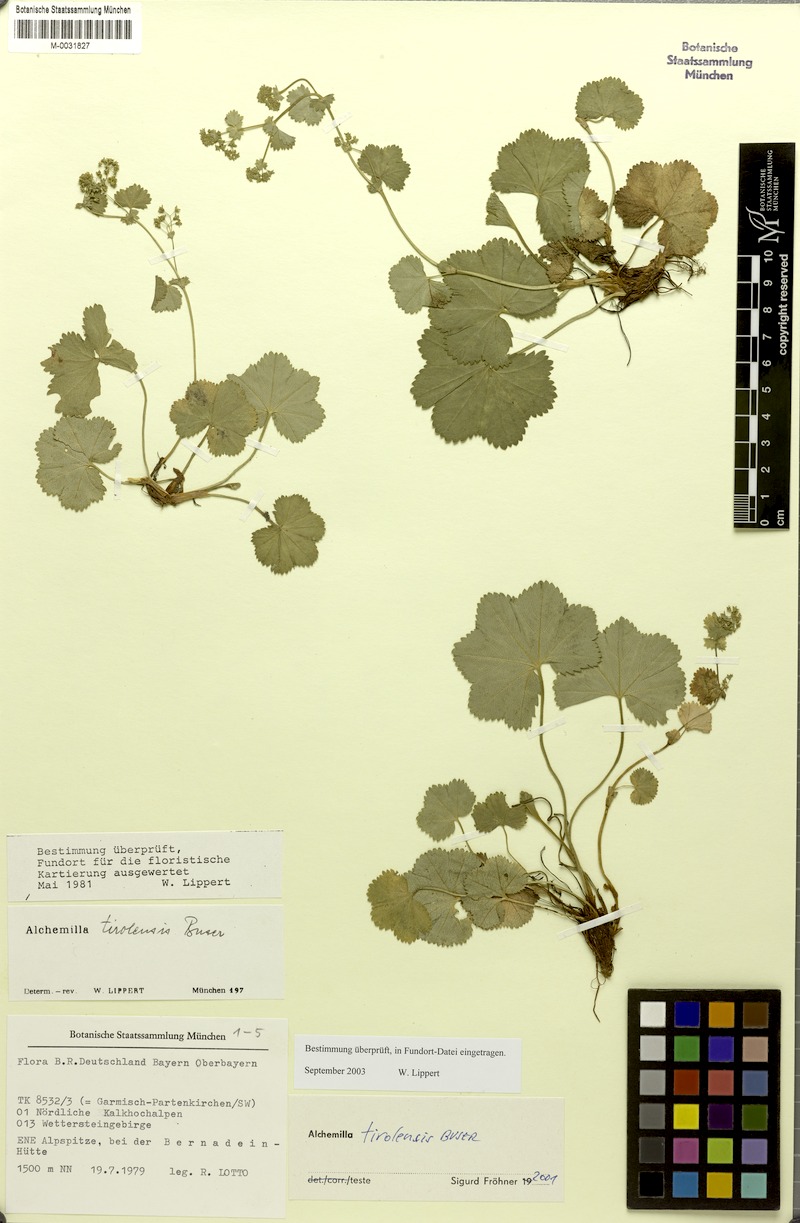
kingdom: Plantae
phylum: Tracheophyta
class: Magnoliopsida
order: Rosales
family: Rosaceae
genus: Alchemilla
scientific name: Alchemilla tirolensis
